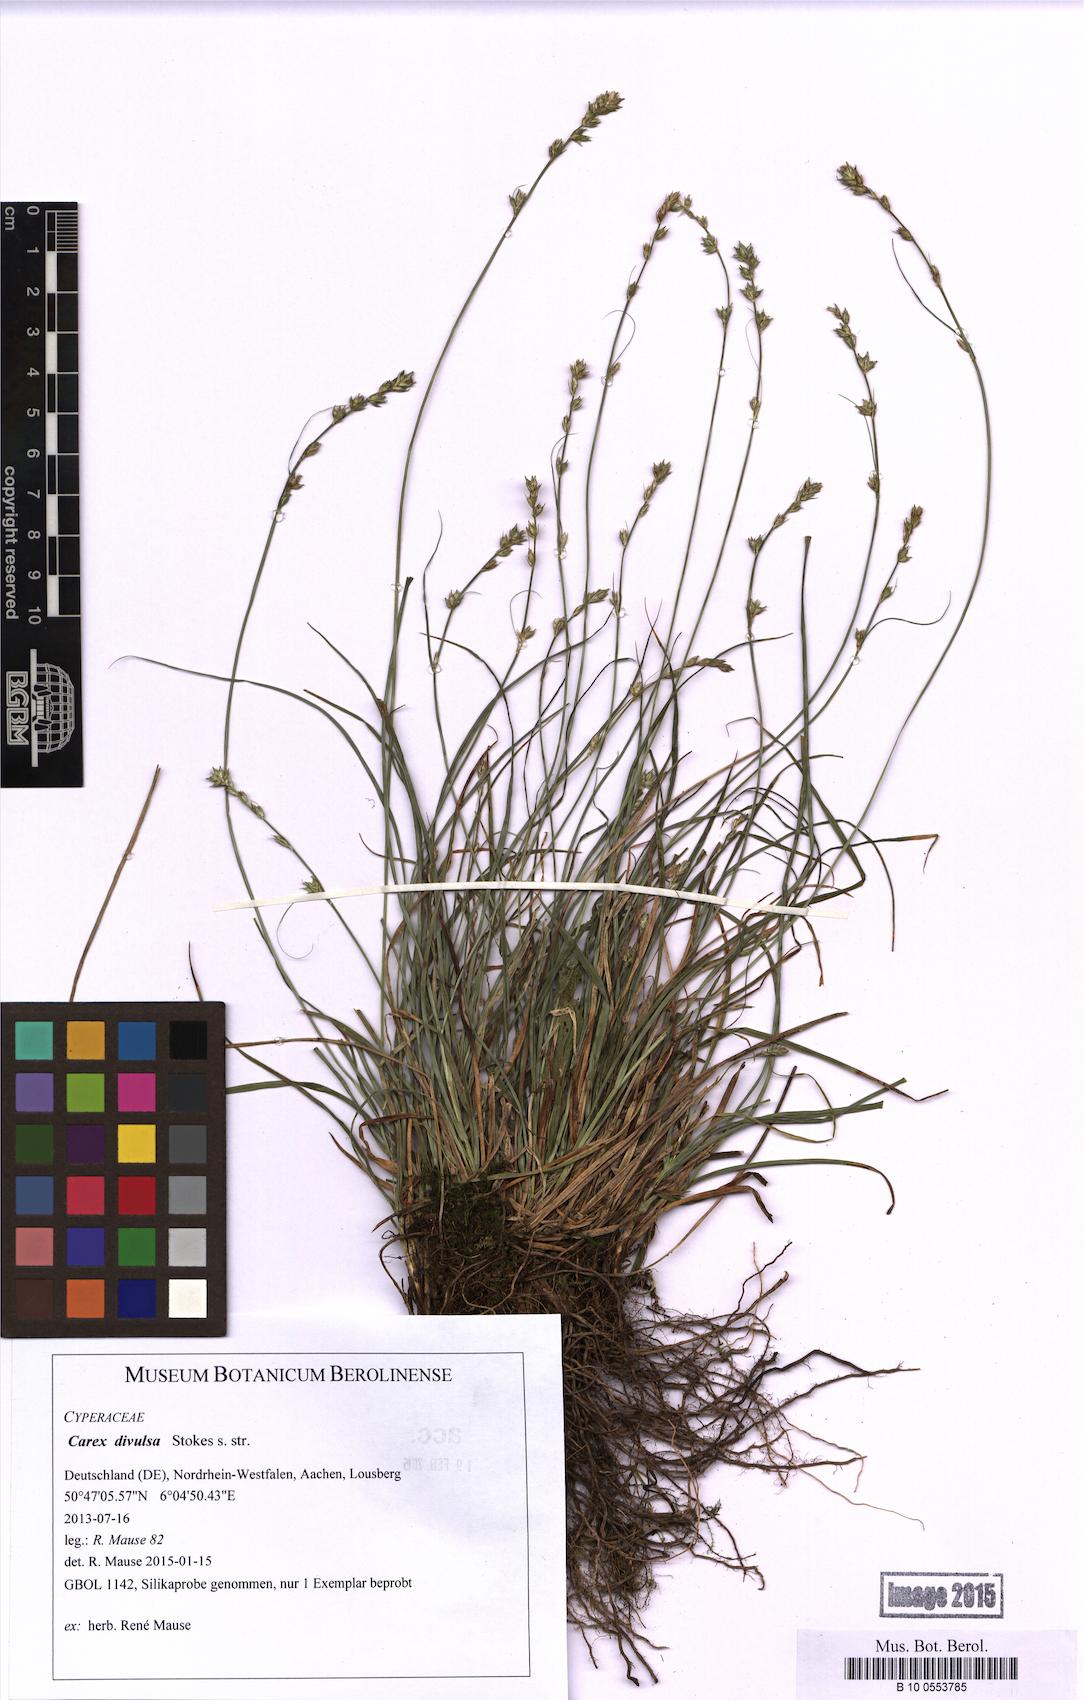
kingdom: Plantae
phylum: Tracheophyta
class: Liliopsida
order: Poales
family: Cyperaceae
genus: Carex
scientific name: Carex divulsa
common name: Grassland sedge
